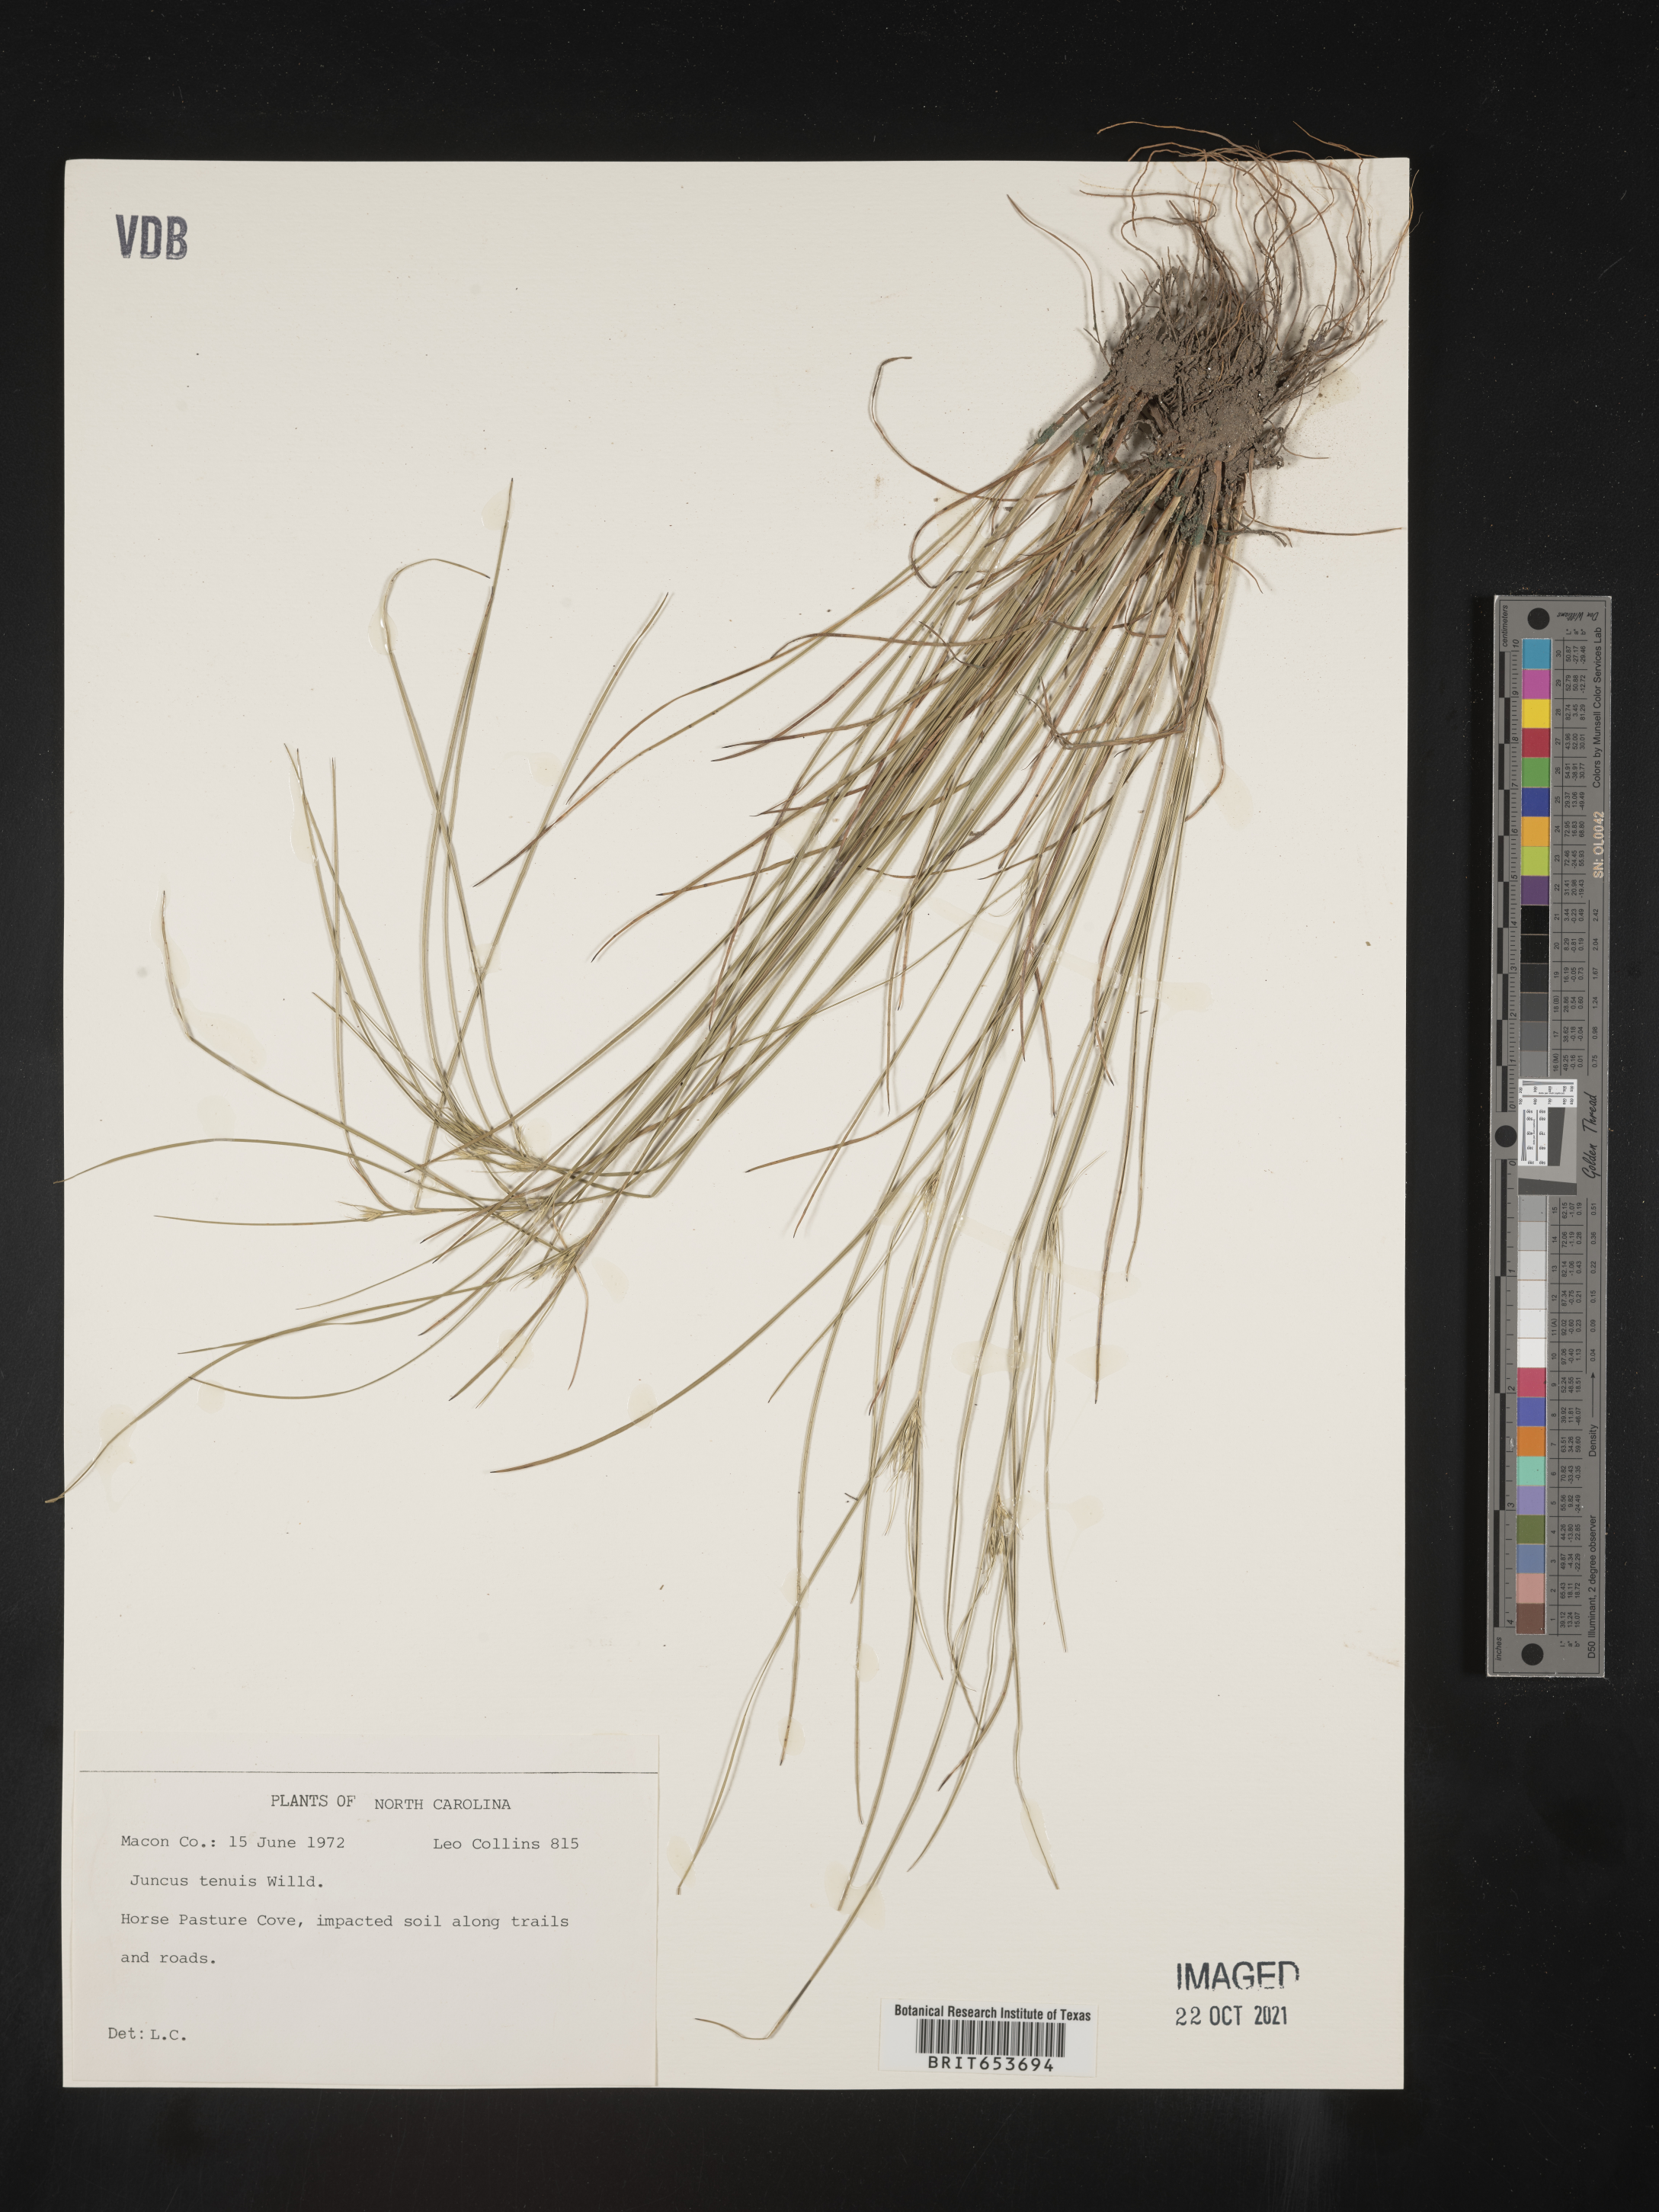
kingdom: Plantae
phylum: Tracheophyta
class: Liliopsida
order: Poales
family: Juncaceae
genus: Juncus
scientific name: Juncus tenuis
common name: Slender rush
